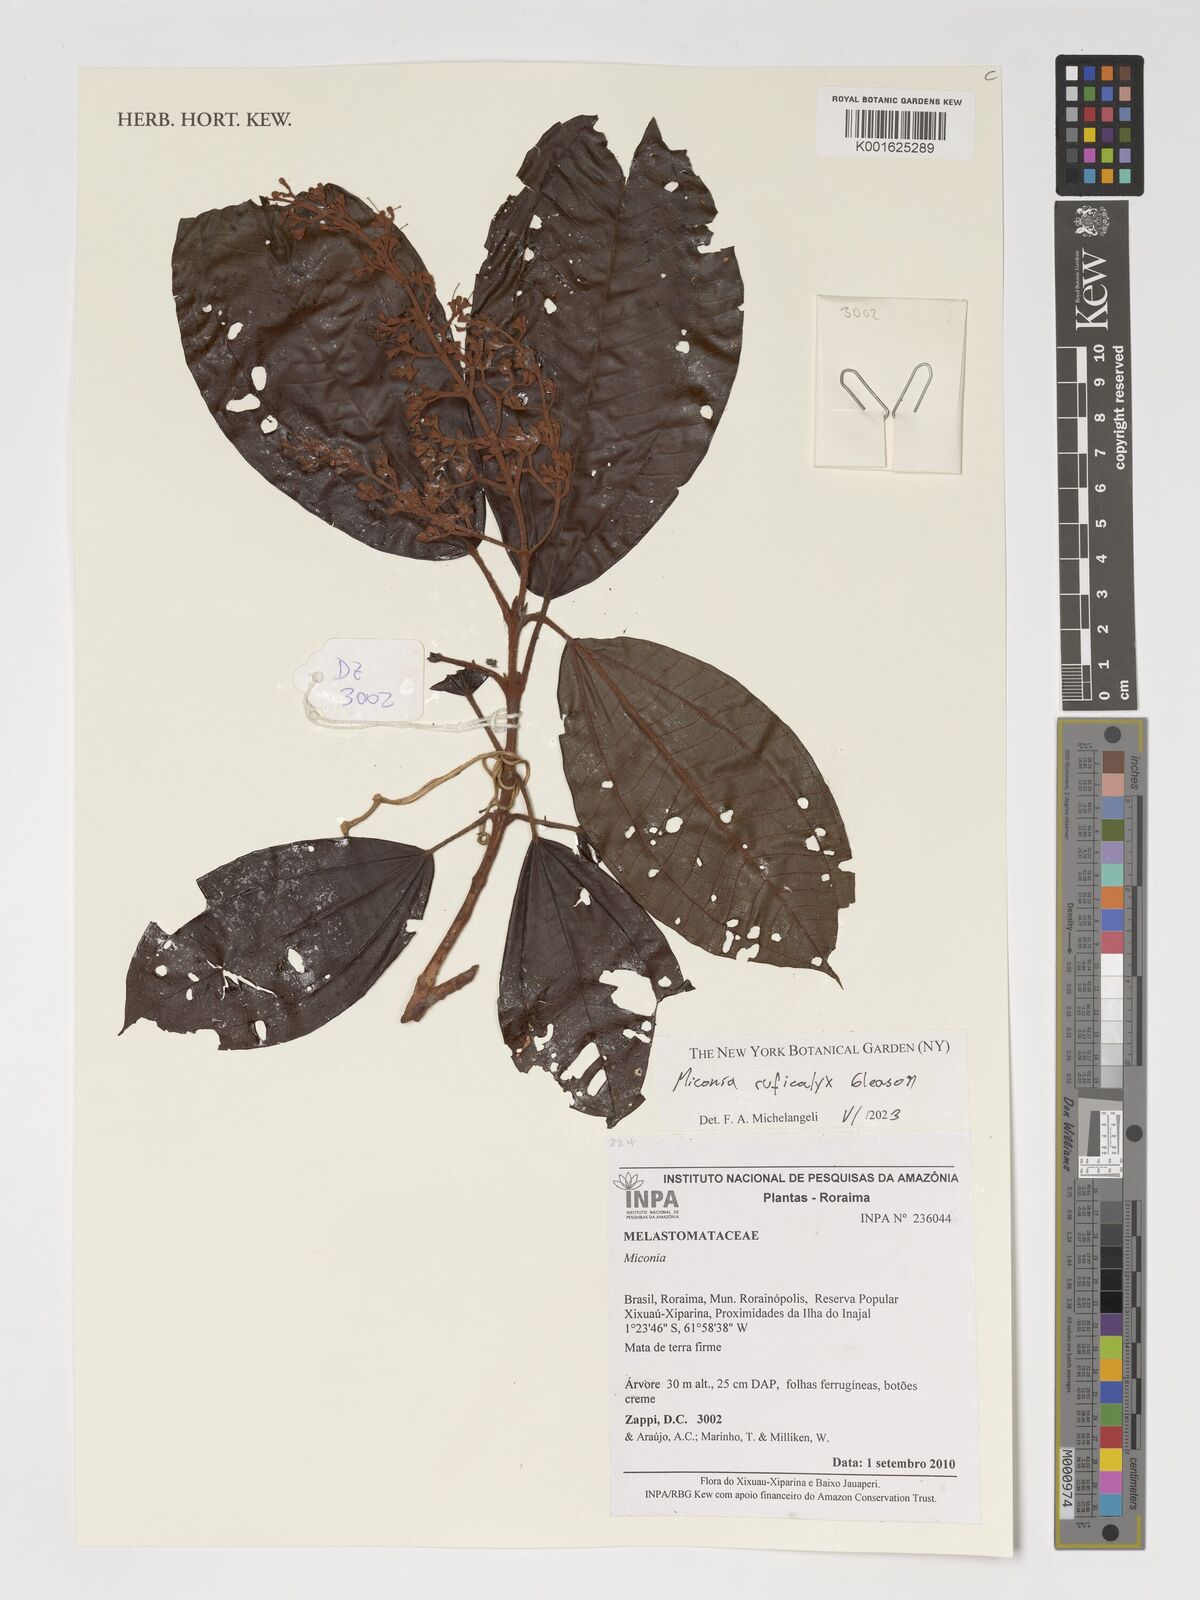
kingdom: Plantae
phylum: Tracheophyta
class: Magnoliopsida
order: Myrtales
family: Melastomataceae
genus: Miconia
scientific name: Miconia ruficalyx
